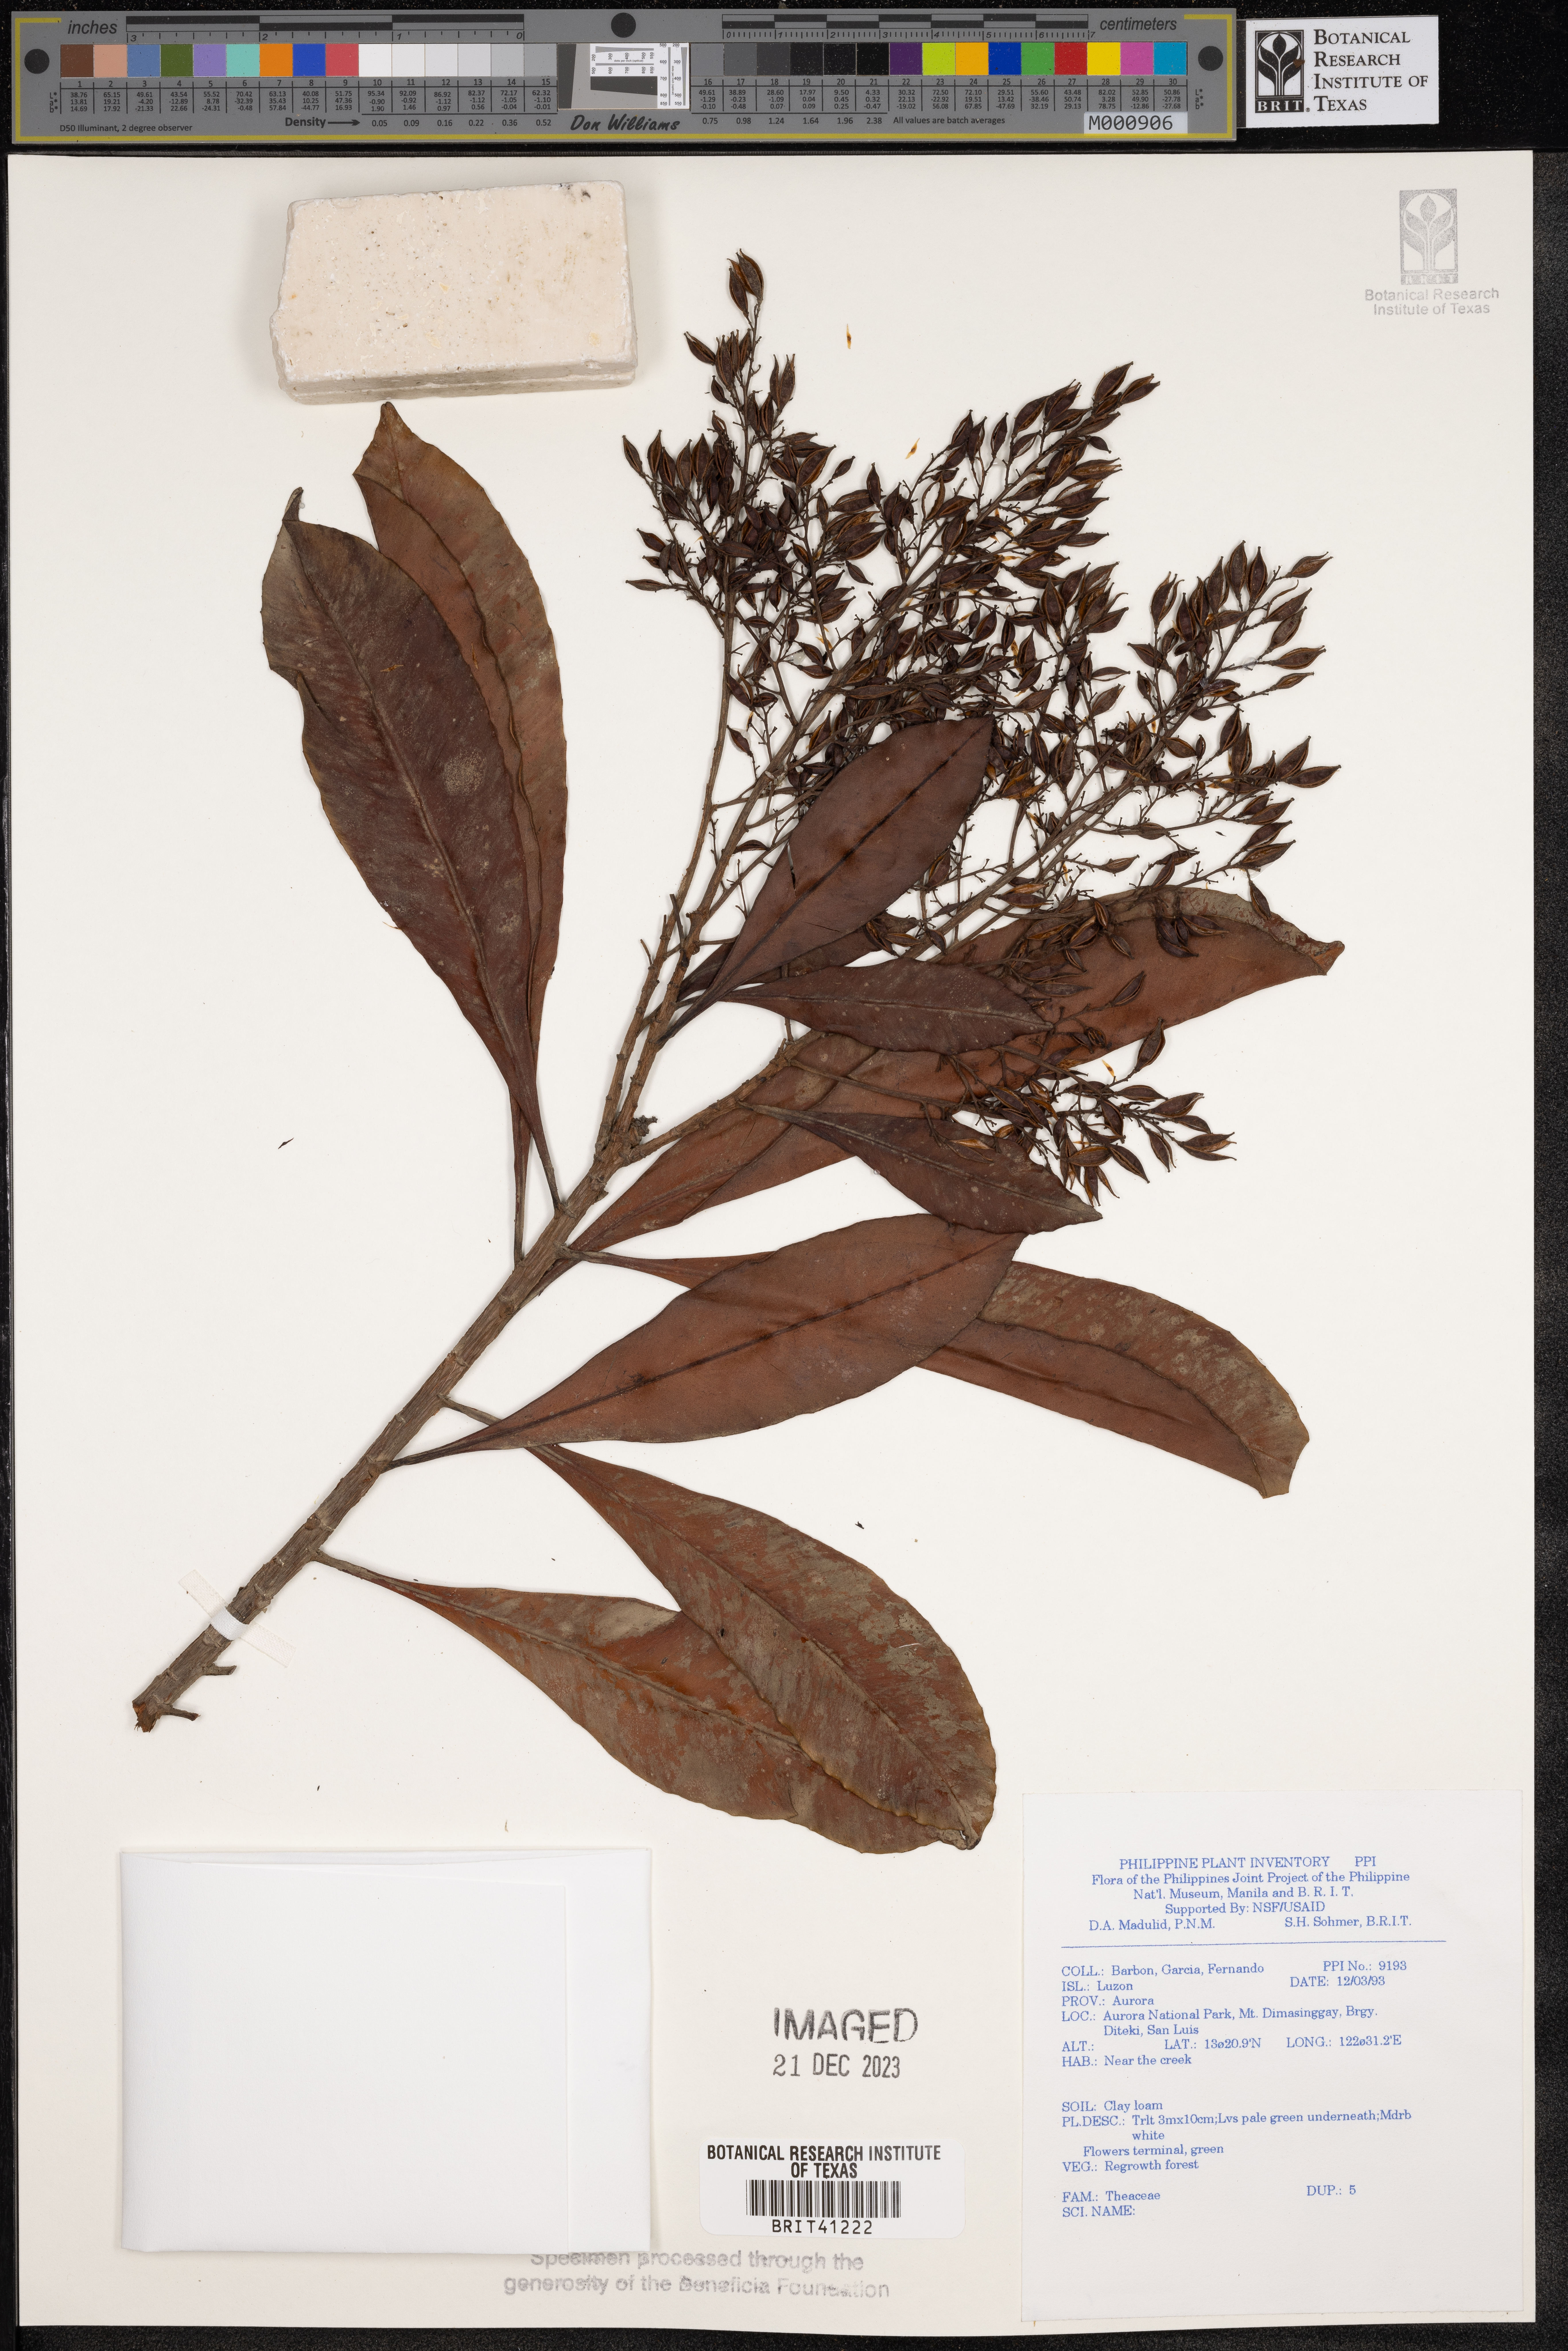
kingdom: Plantae
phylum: Tracheophyta
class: Magnoliopsida
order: Ericales
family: Theaceae
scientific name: Theaceae
